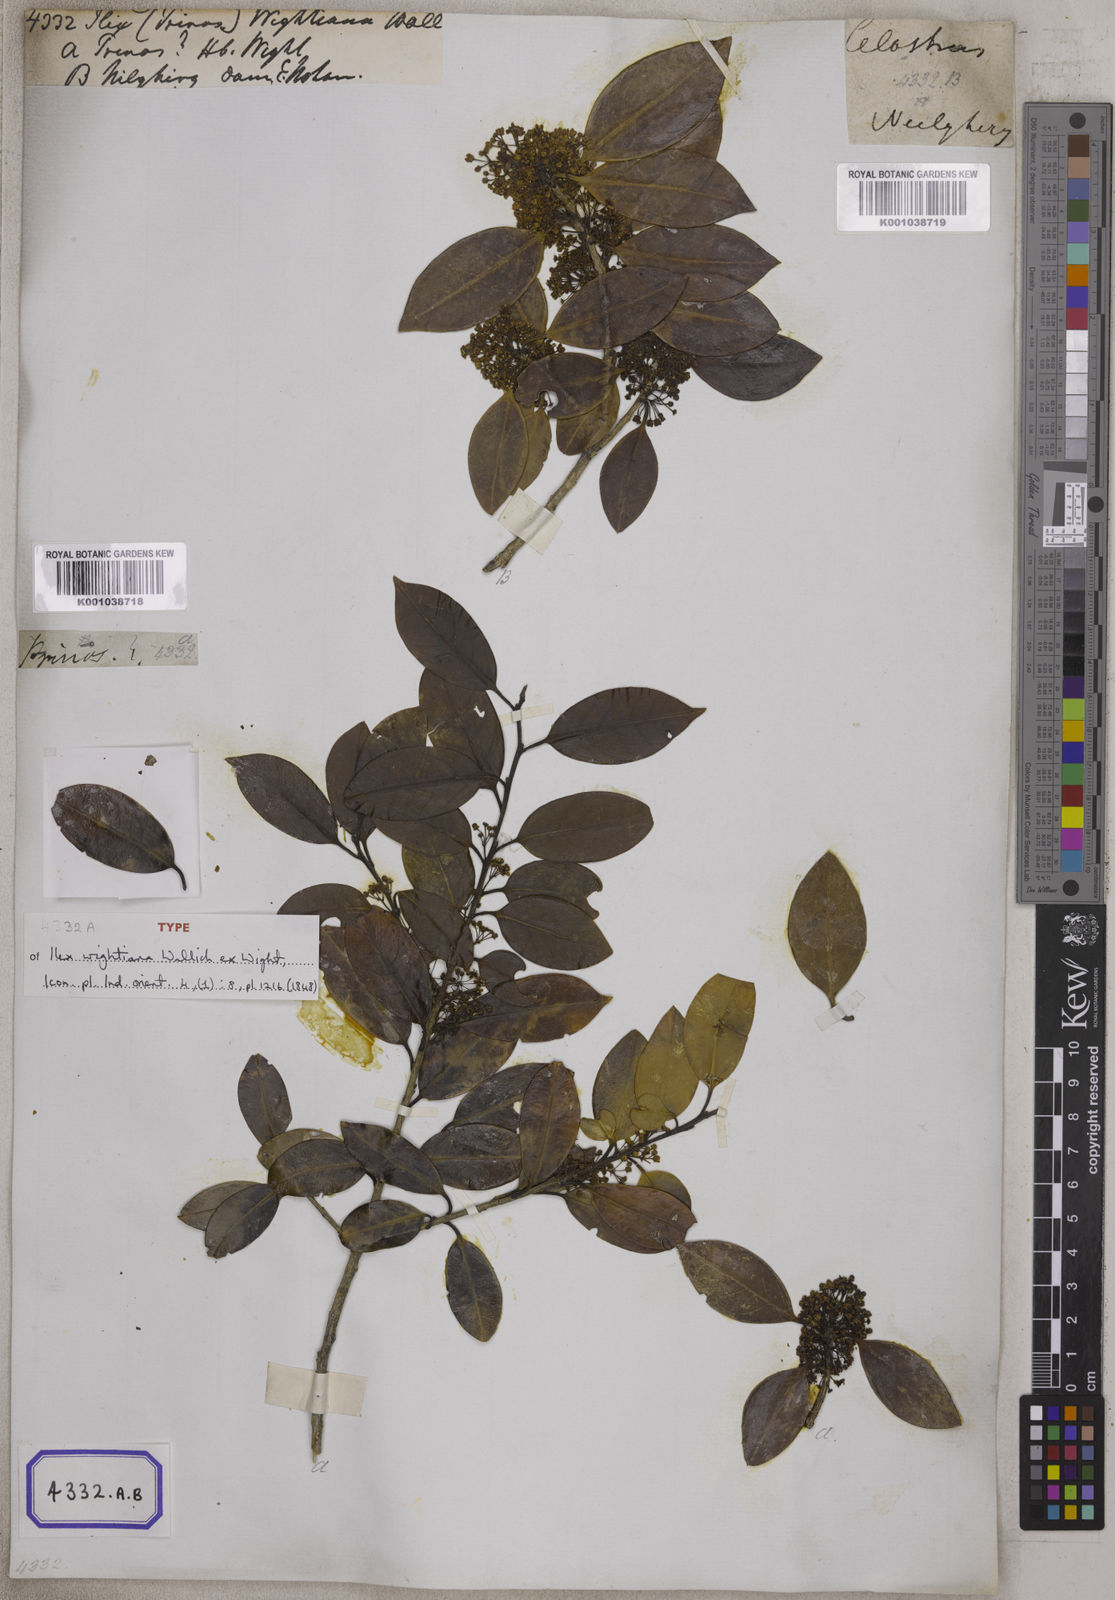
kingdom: Plantae
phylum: Tracheophyta
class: Magnoliopsida
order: Aquifoliales
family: Aquifoliaceae
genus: Ilex
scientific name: Ilex
